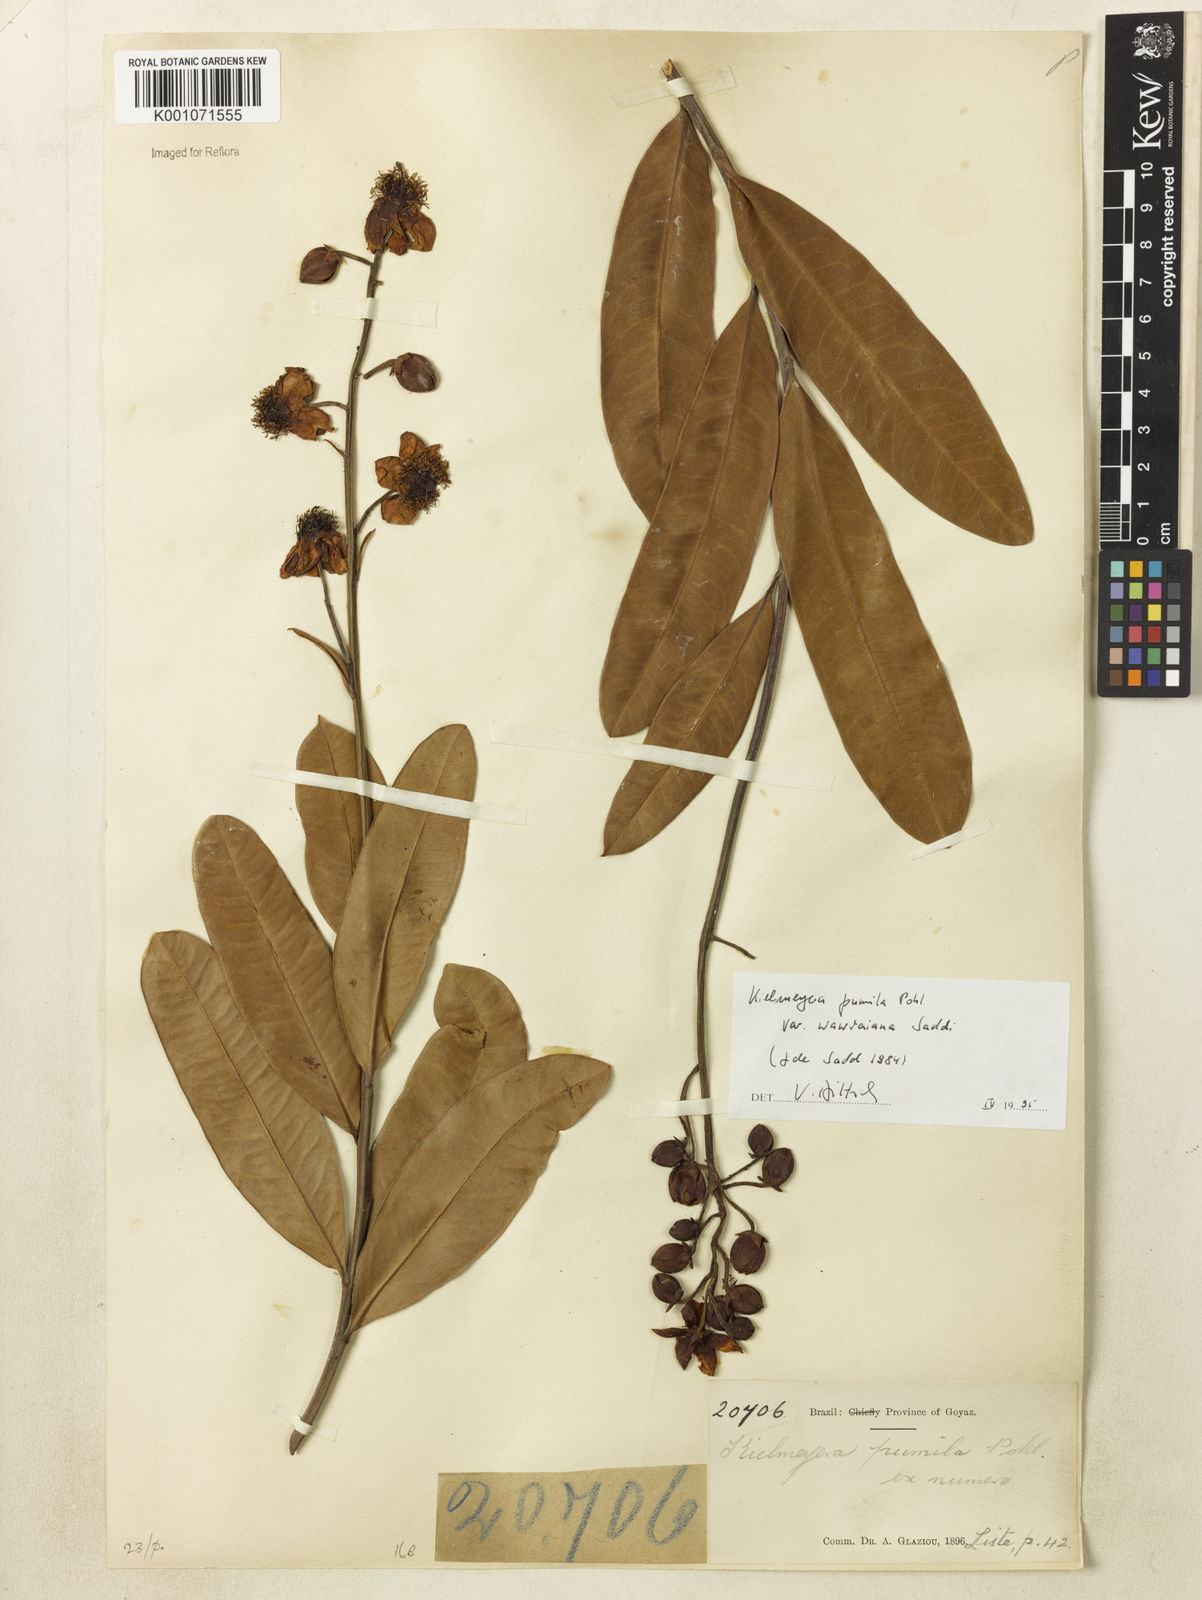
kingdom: Plantae
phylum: Tracheophyta
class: Magnoliopsida
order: Malpighiales
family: Calophyllaceae
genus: Kielmeyera
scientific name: Kielmeyera pumila
